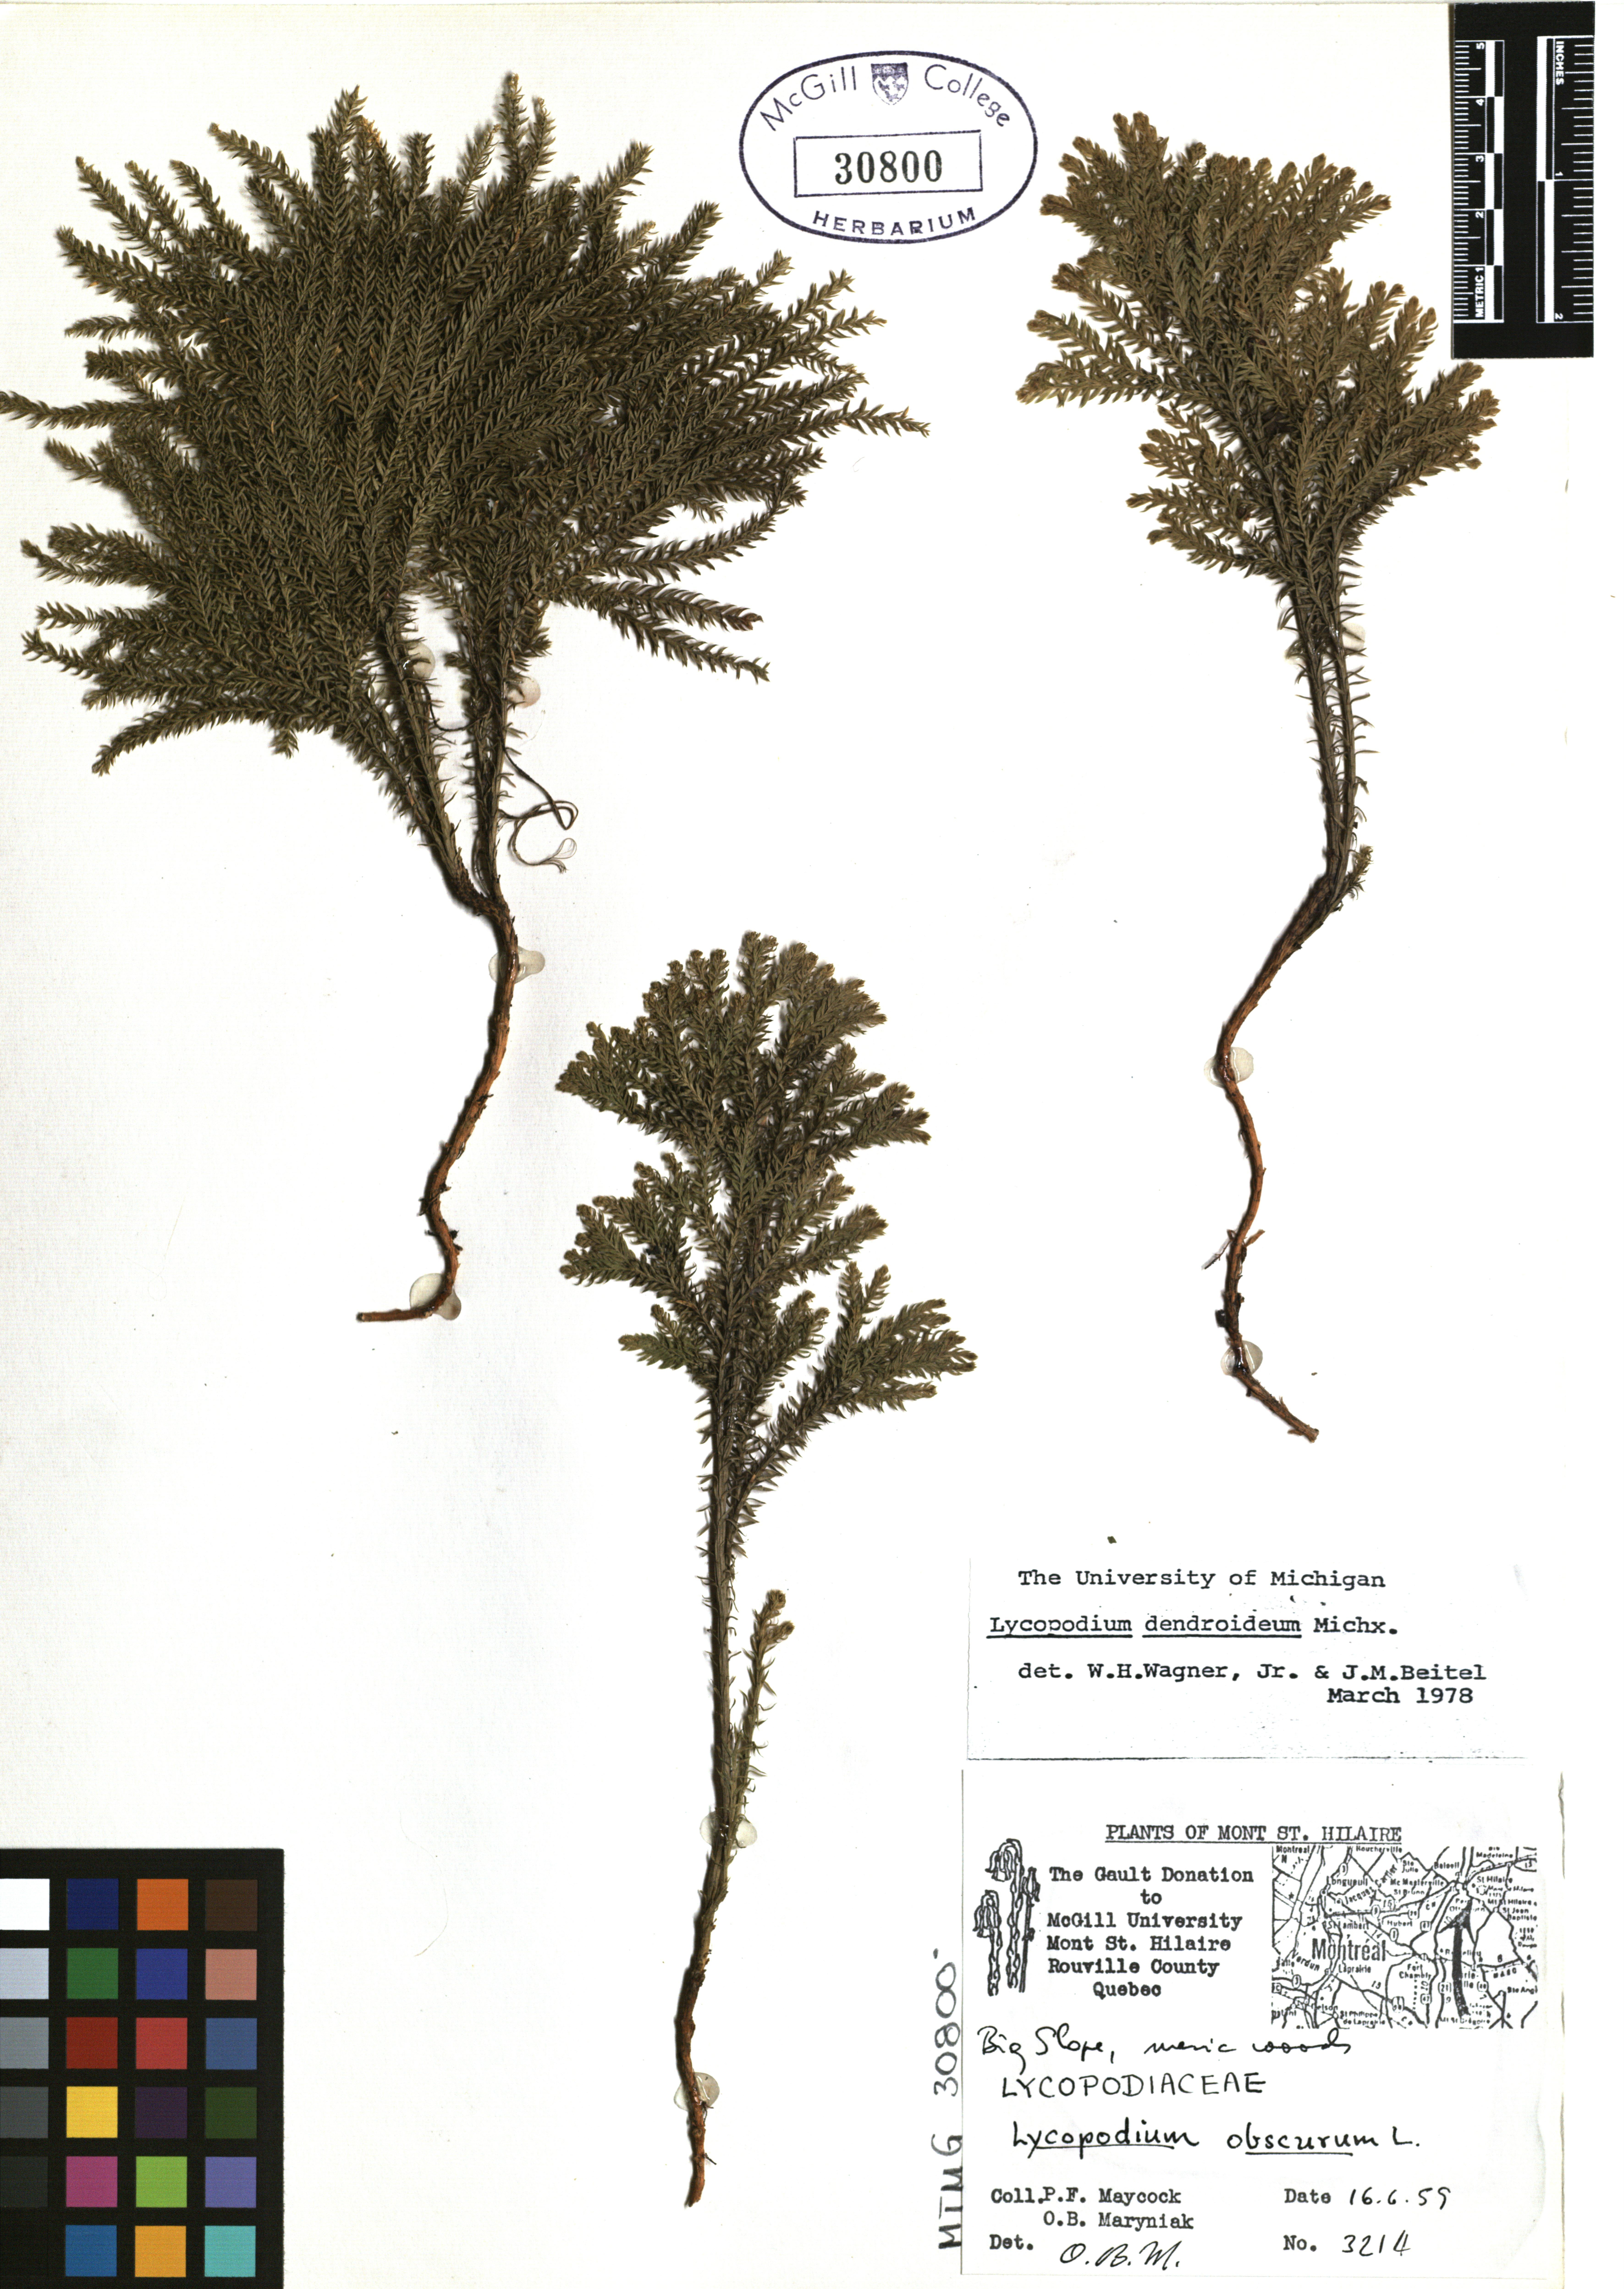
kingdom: Plantae
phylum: Tracheophyta
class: Lycopodiopsida
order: Lycopodiales
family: Lycopodiaceae
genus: Dendrolycopodium
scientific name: Dendrolycopodium dendroideum
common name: Northern tree-clubmoss
